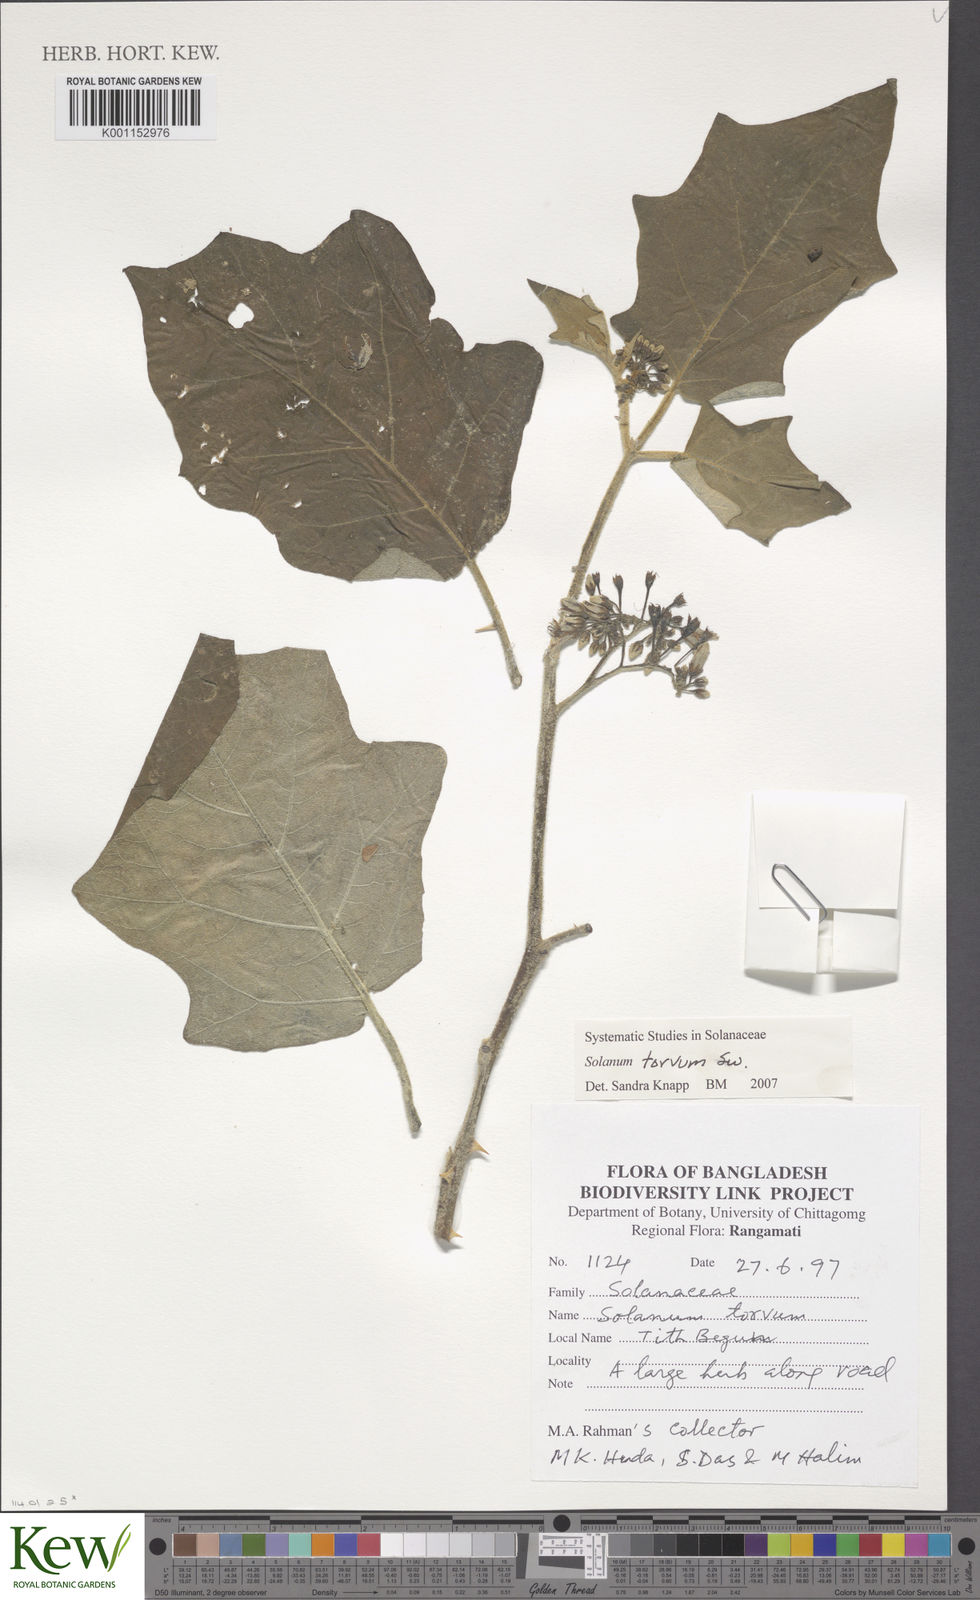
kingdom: Plantae
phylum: Tracheophyta
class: Magnoliopsida
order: Solanales
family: Solanaceae
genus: Solanum
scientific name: Solanum torvum
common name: Turkey berry
